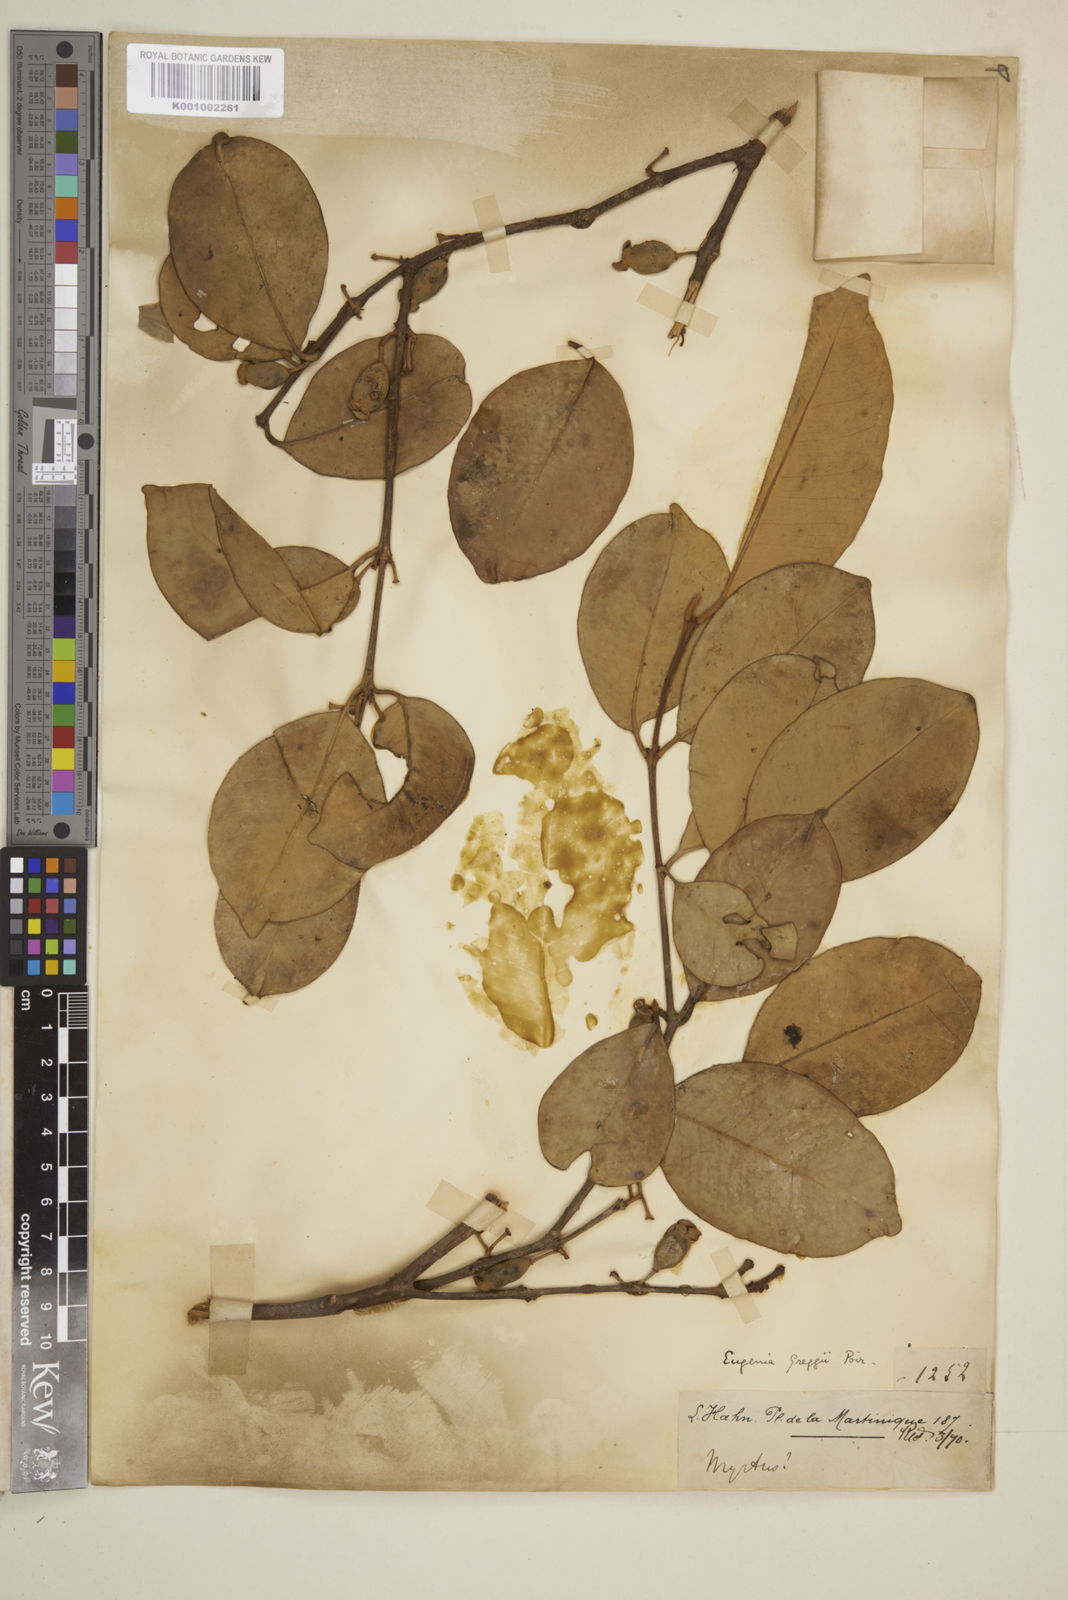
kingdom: Plantae
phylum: Tracheophyta
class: Magnoliopsida
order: Myrtales
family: Myrtaceae
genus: Eugenia
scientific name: Eugenia greggii
